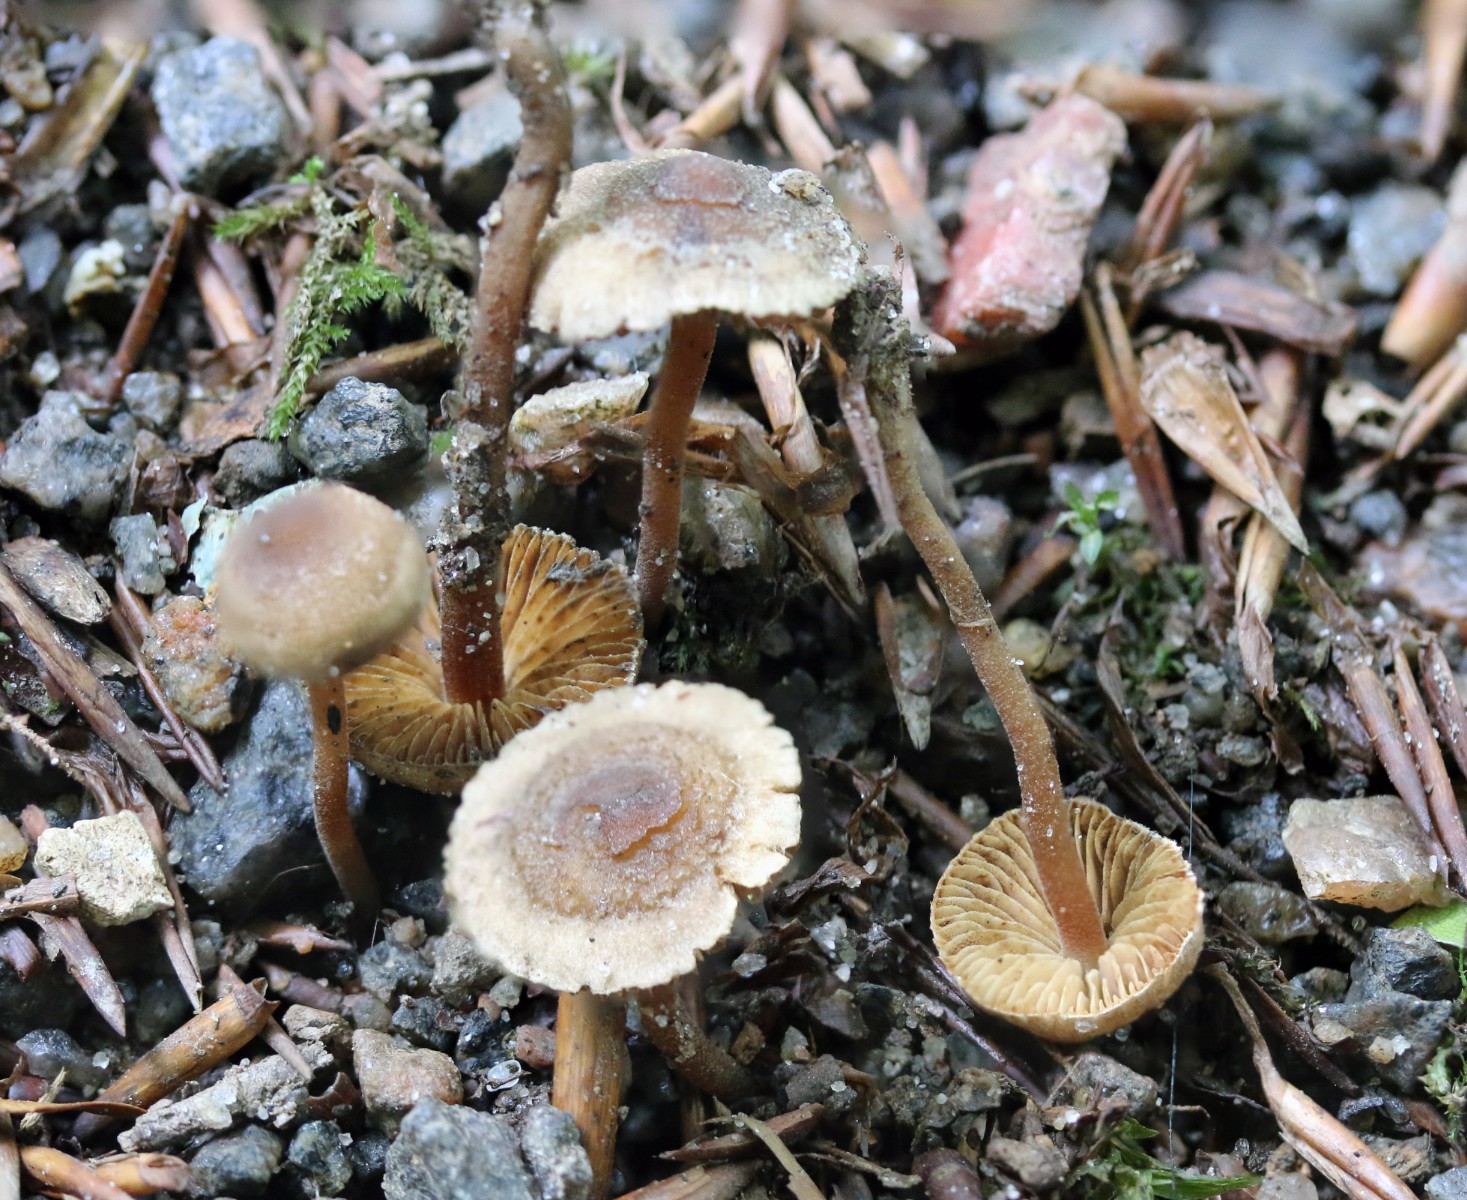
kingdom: Fungi
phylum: Basidiomycota
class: Agaricomycetes
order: Agaricales
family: Inocybaceae
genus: Inocybe
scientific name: Inocybe petiginosa
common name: liden trævlhat
